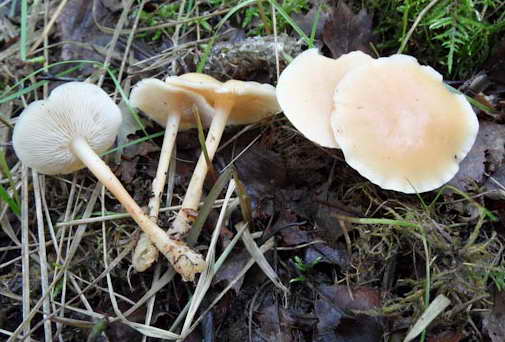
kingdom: Fungi
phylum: Basidiomycota
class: Agaricomycetes
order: Agaricales
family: Omphalotaceae
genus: Gymnopus
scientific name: Gymnopus aquosus
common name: bleg fladhat
